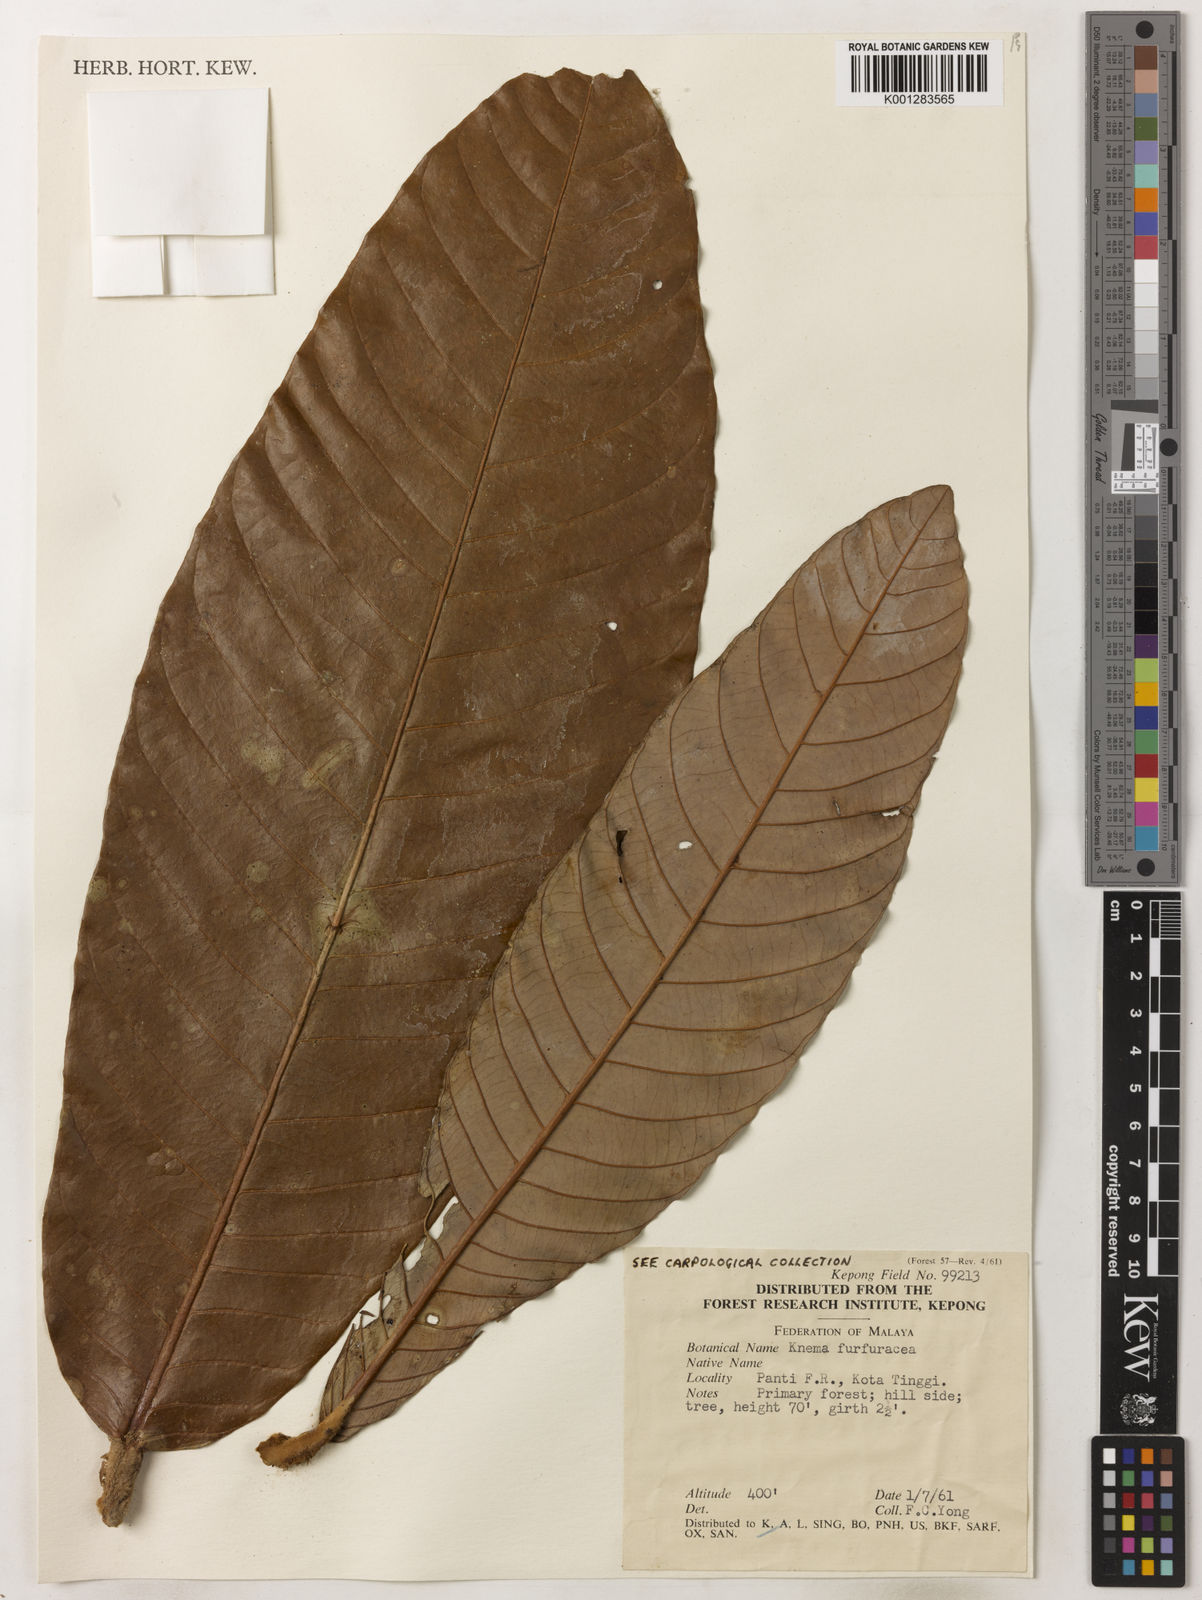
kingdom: Plantae
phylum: Tracheophyta
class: Magnoliopsida
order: Magnoliales
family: Myristicaceae
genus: Knema
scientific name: Knema furfuracea
